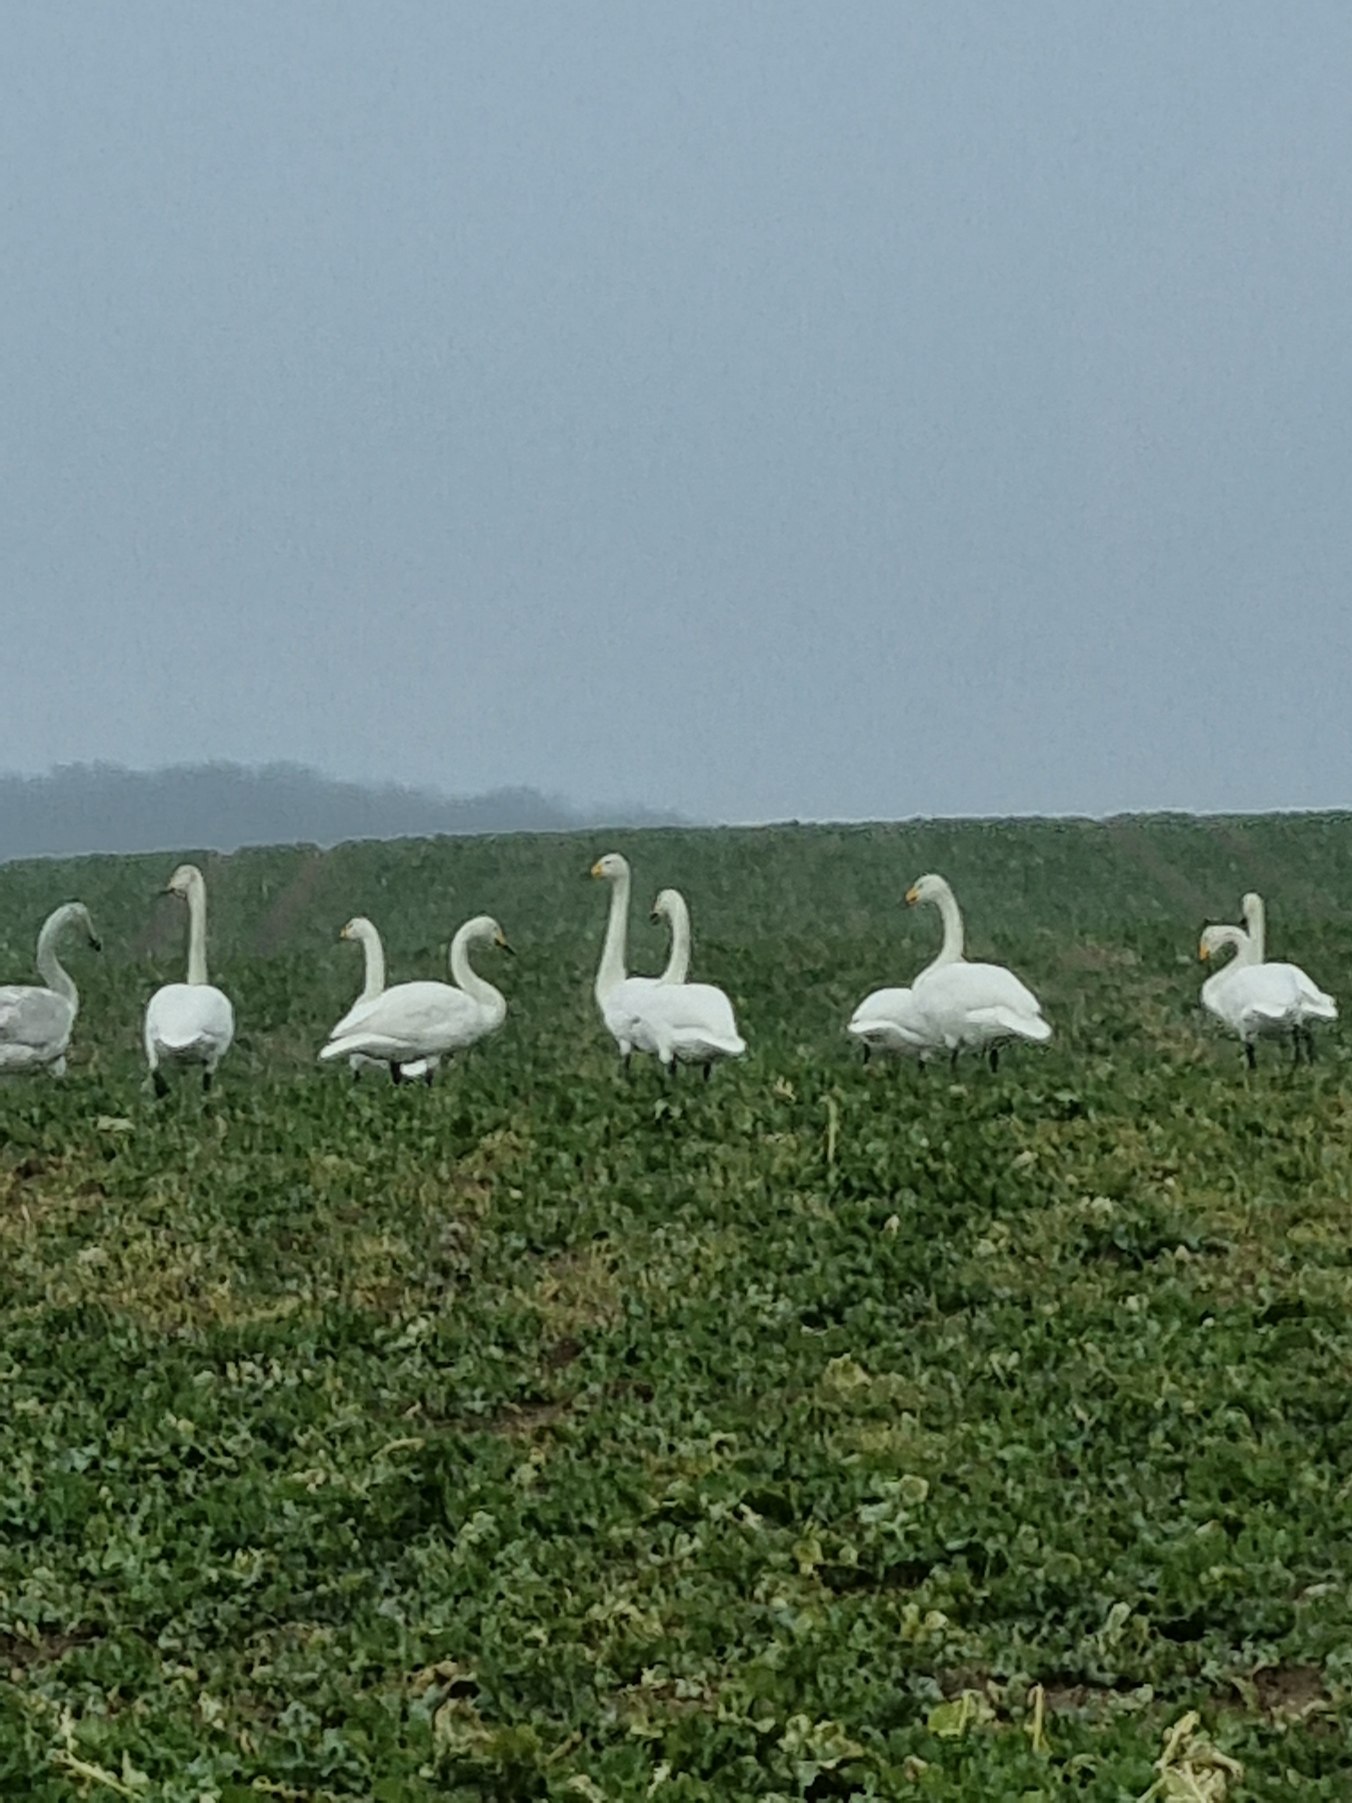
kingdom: Animalia
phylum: Chordata
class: Aves
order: Anseriformes
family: Anatidae
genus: Cygnus
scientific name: Cygnus cygnus
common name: Sangsvane
